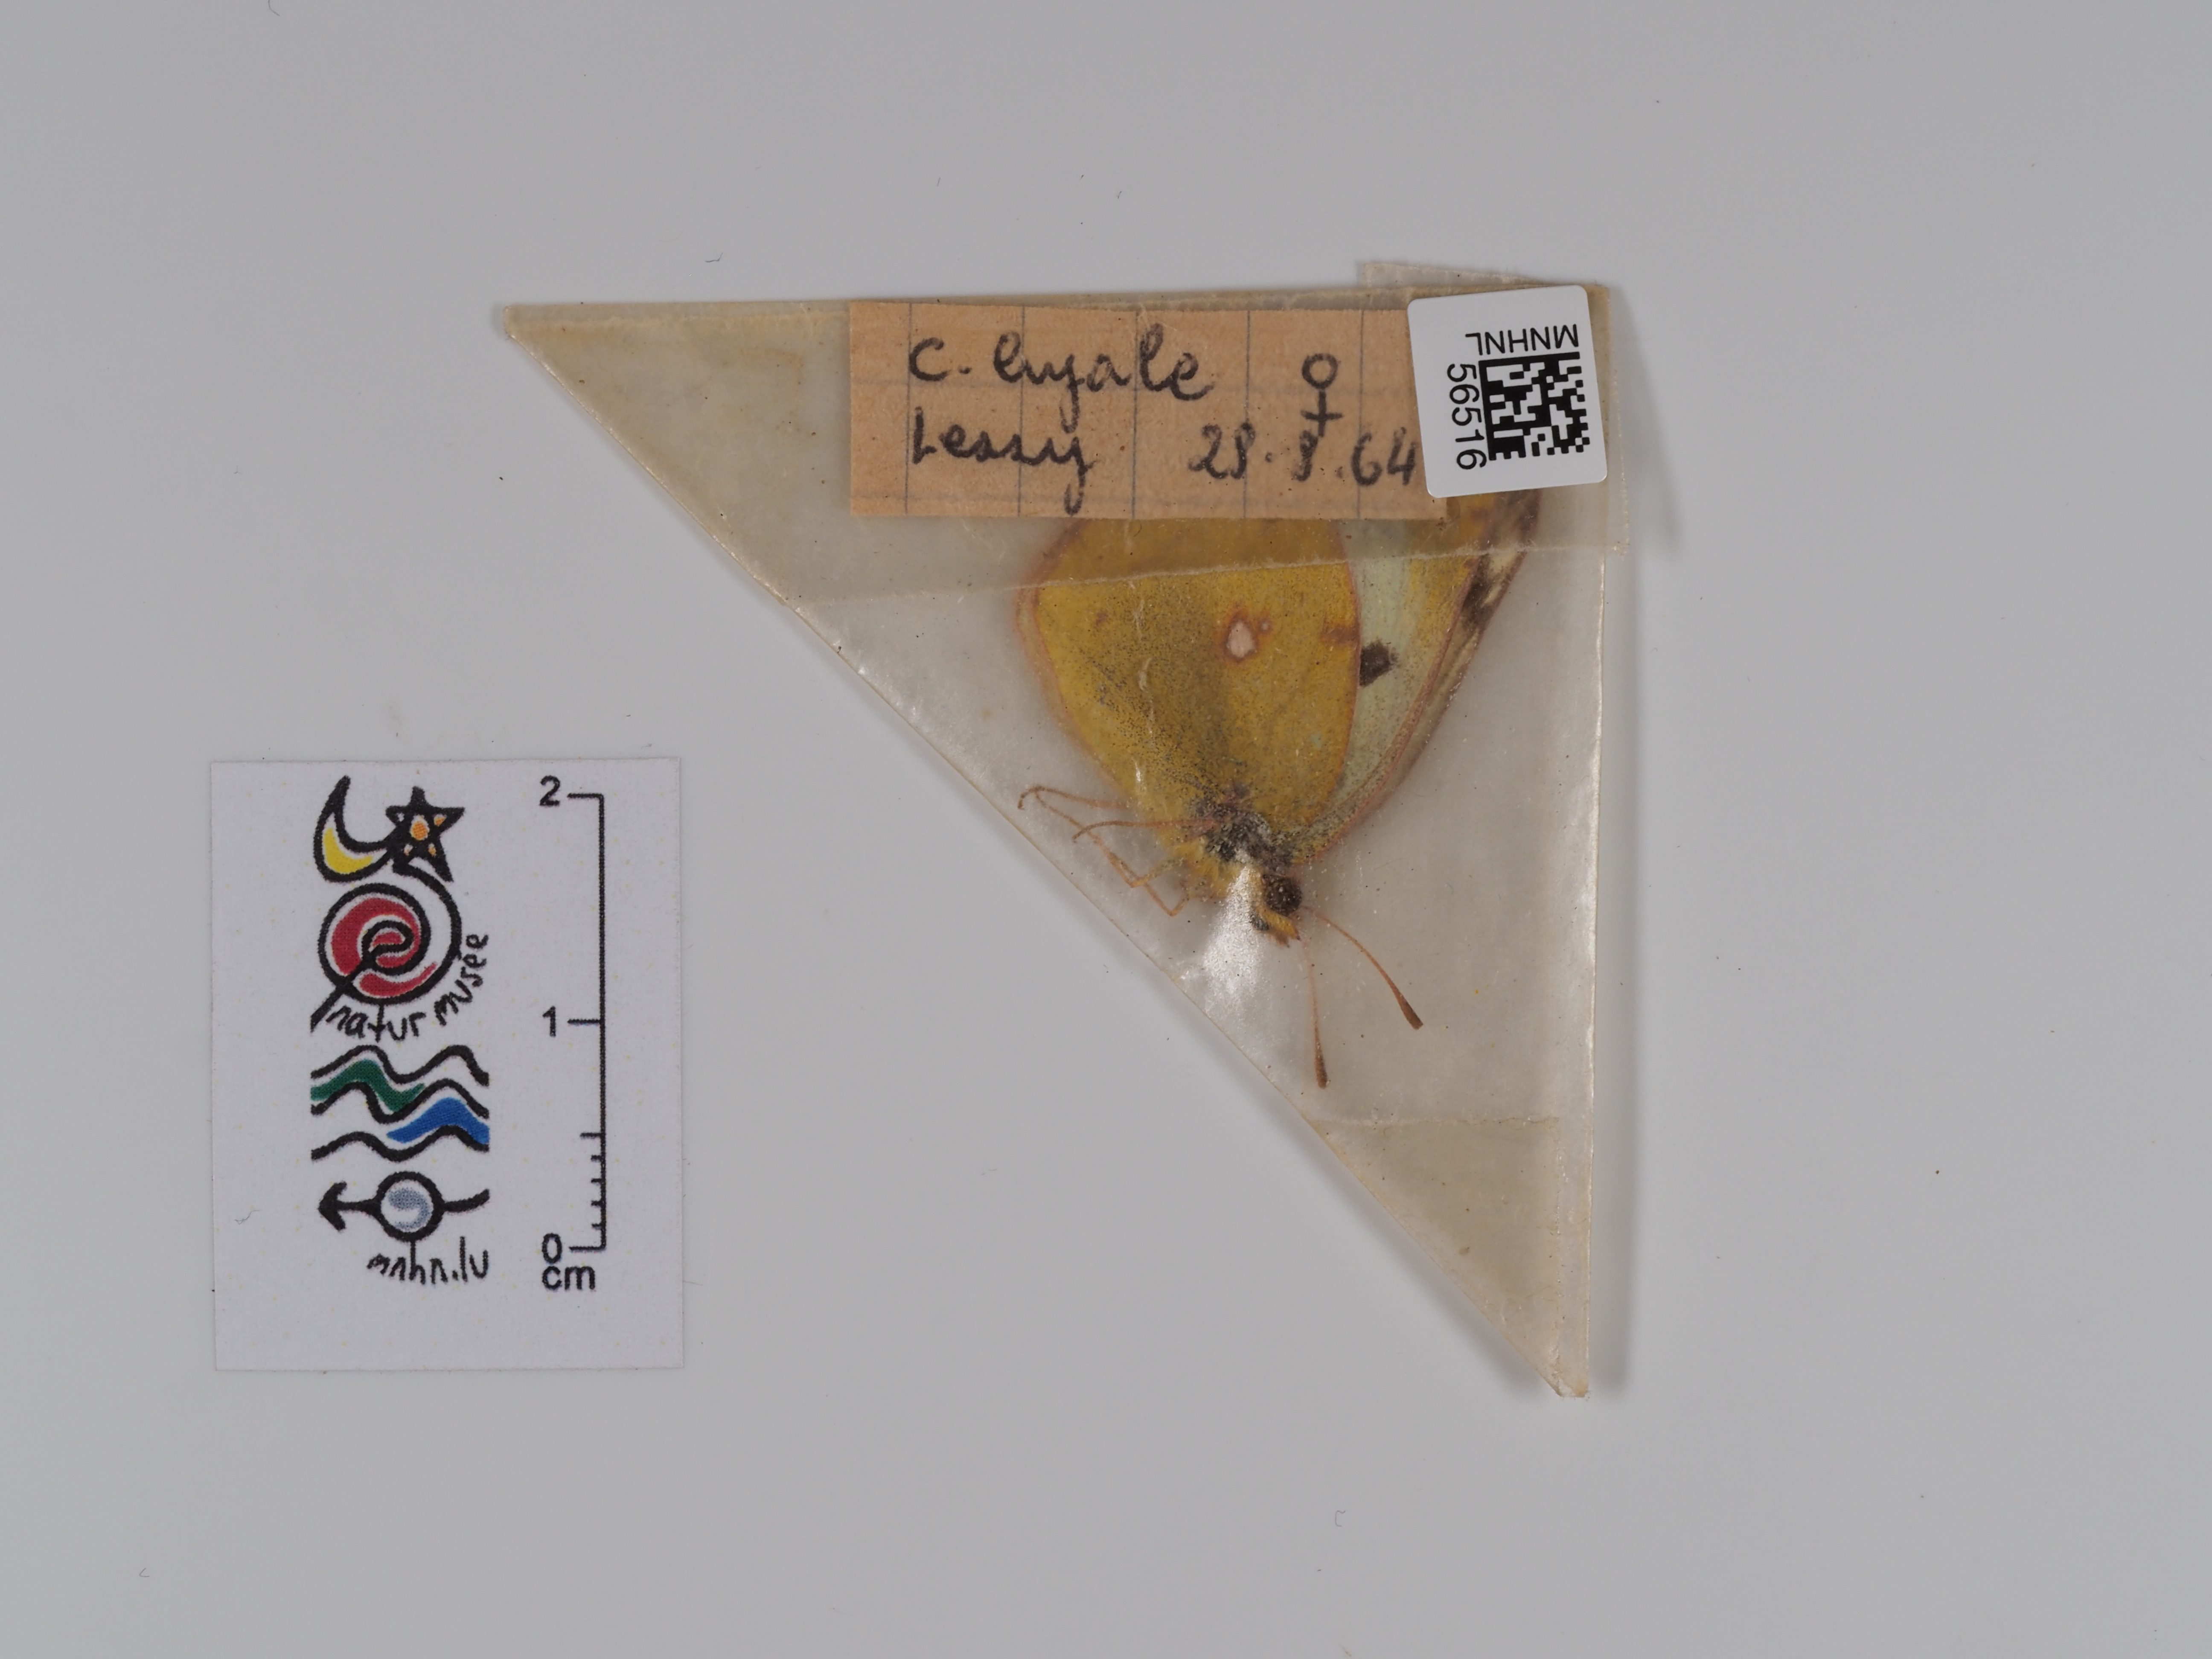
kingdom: Animalia
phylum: Arthropoda
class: Insecta
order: Lepidoptera
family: Pieridae
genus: Colias
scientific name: Colias hyale
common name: Pale clouded yellow
